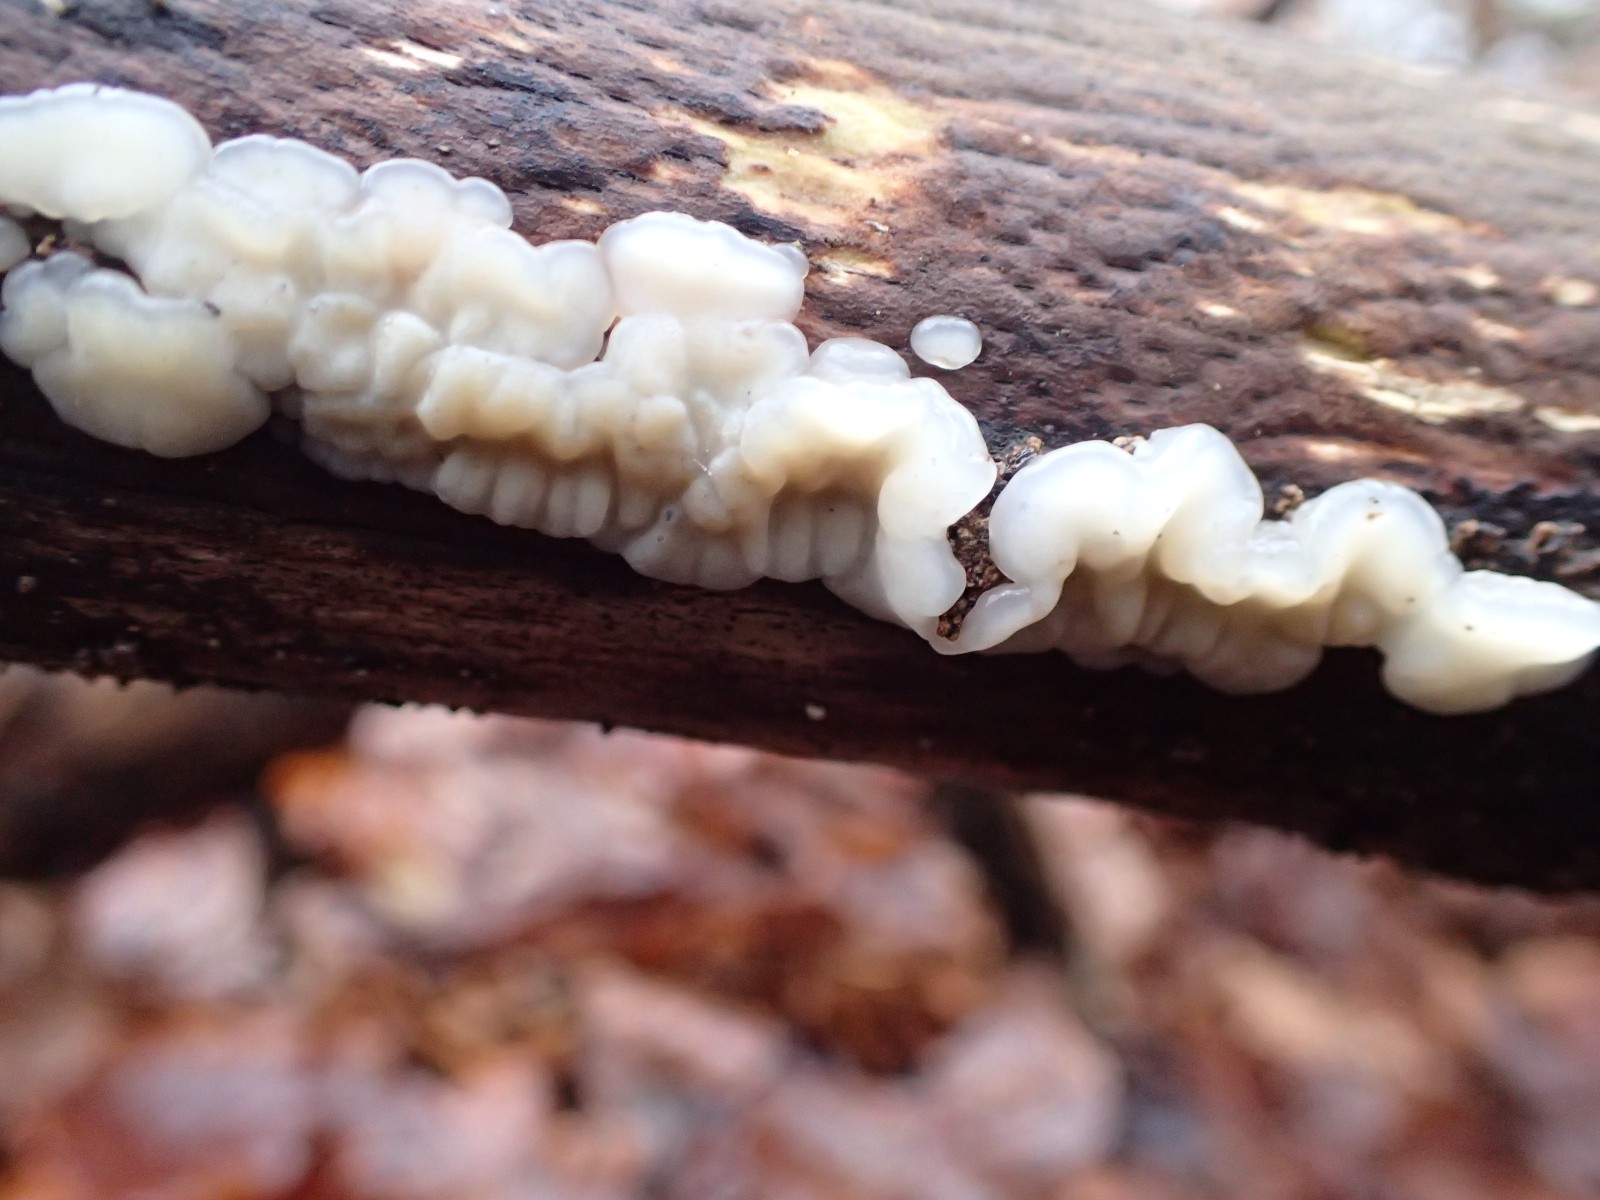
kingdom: Fungi
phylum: Basidiomycota
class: Agaricomycetes
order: Auriculariales
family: Auriculariaceae
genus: Exidia
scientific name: Exidia thuretiana
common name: hvidlig bævretop
